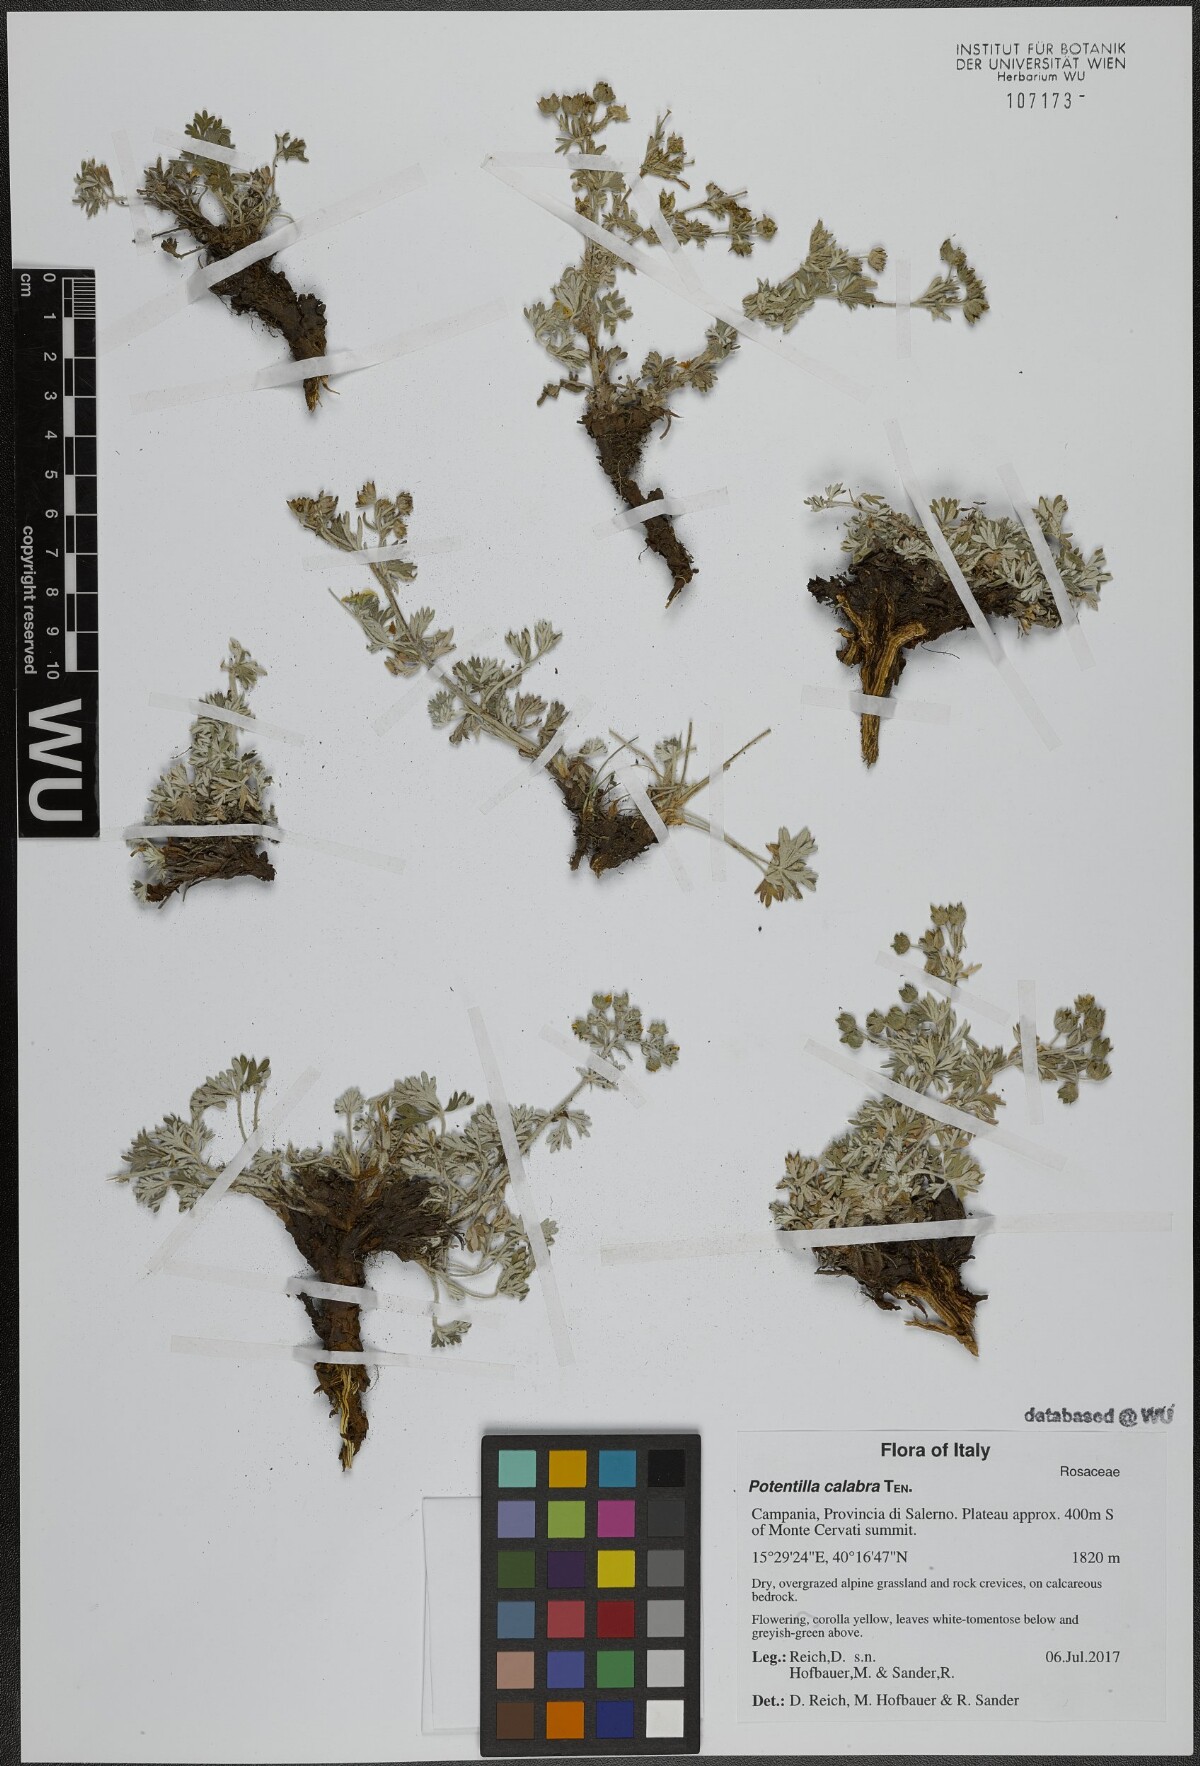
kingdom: Plantae
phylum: Tracheophyta
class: Magnoliopsida
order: Rosales
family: Rosaceae
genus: Potentilla
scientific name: Potentilla calabra
